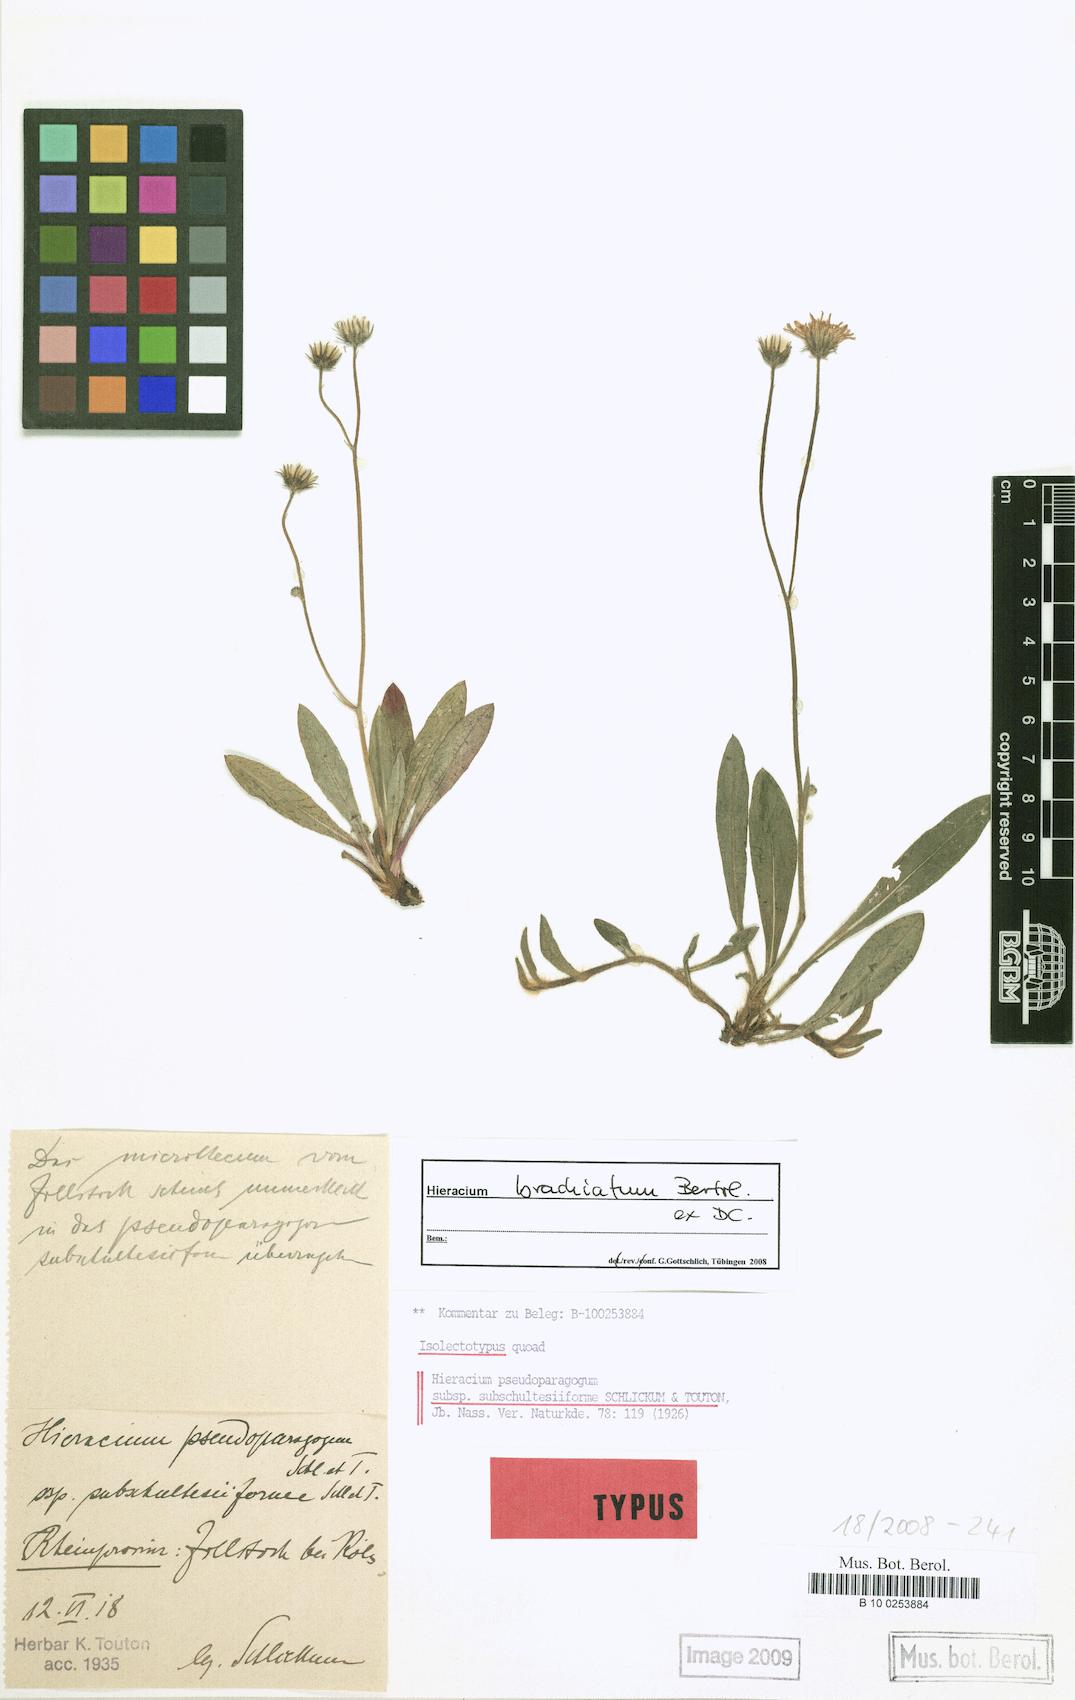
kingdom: Plantae
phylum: Tracheophyta
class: Magnoliopsida
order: Asterales
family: Asteraceae
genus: Pilosella
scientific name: Pilosella acutifolia
